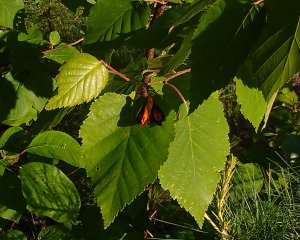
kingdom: Animalia
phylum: Arthropoda
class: Insecta
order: Lepidoptera
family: Hesperiidae
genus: Lon
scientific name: Lon hobomok
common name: Hobomok Skipper
